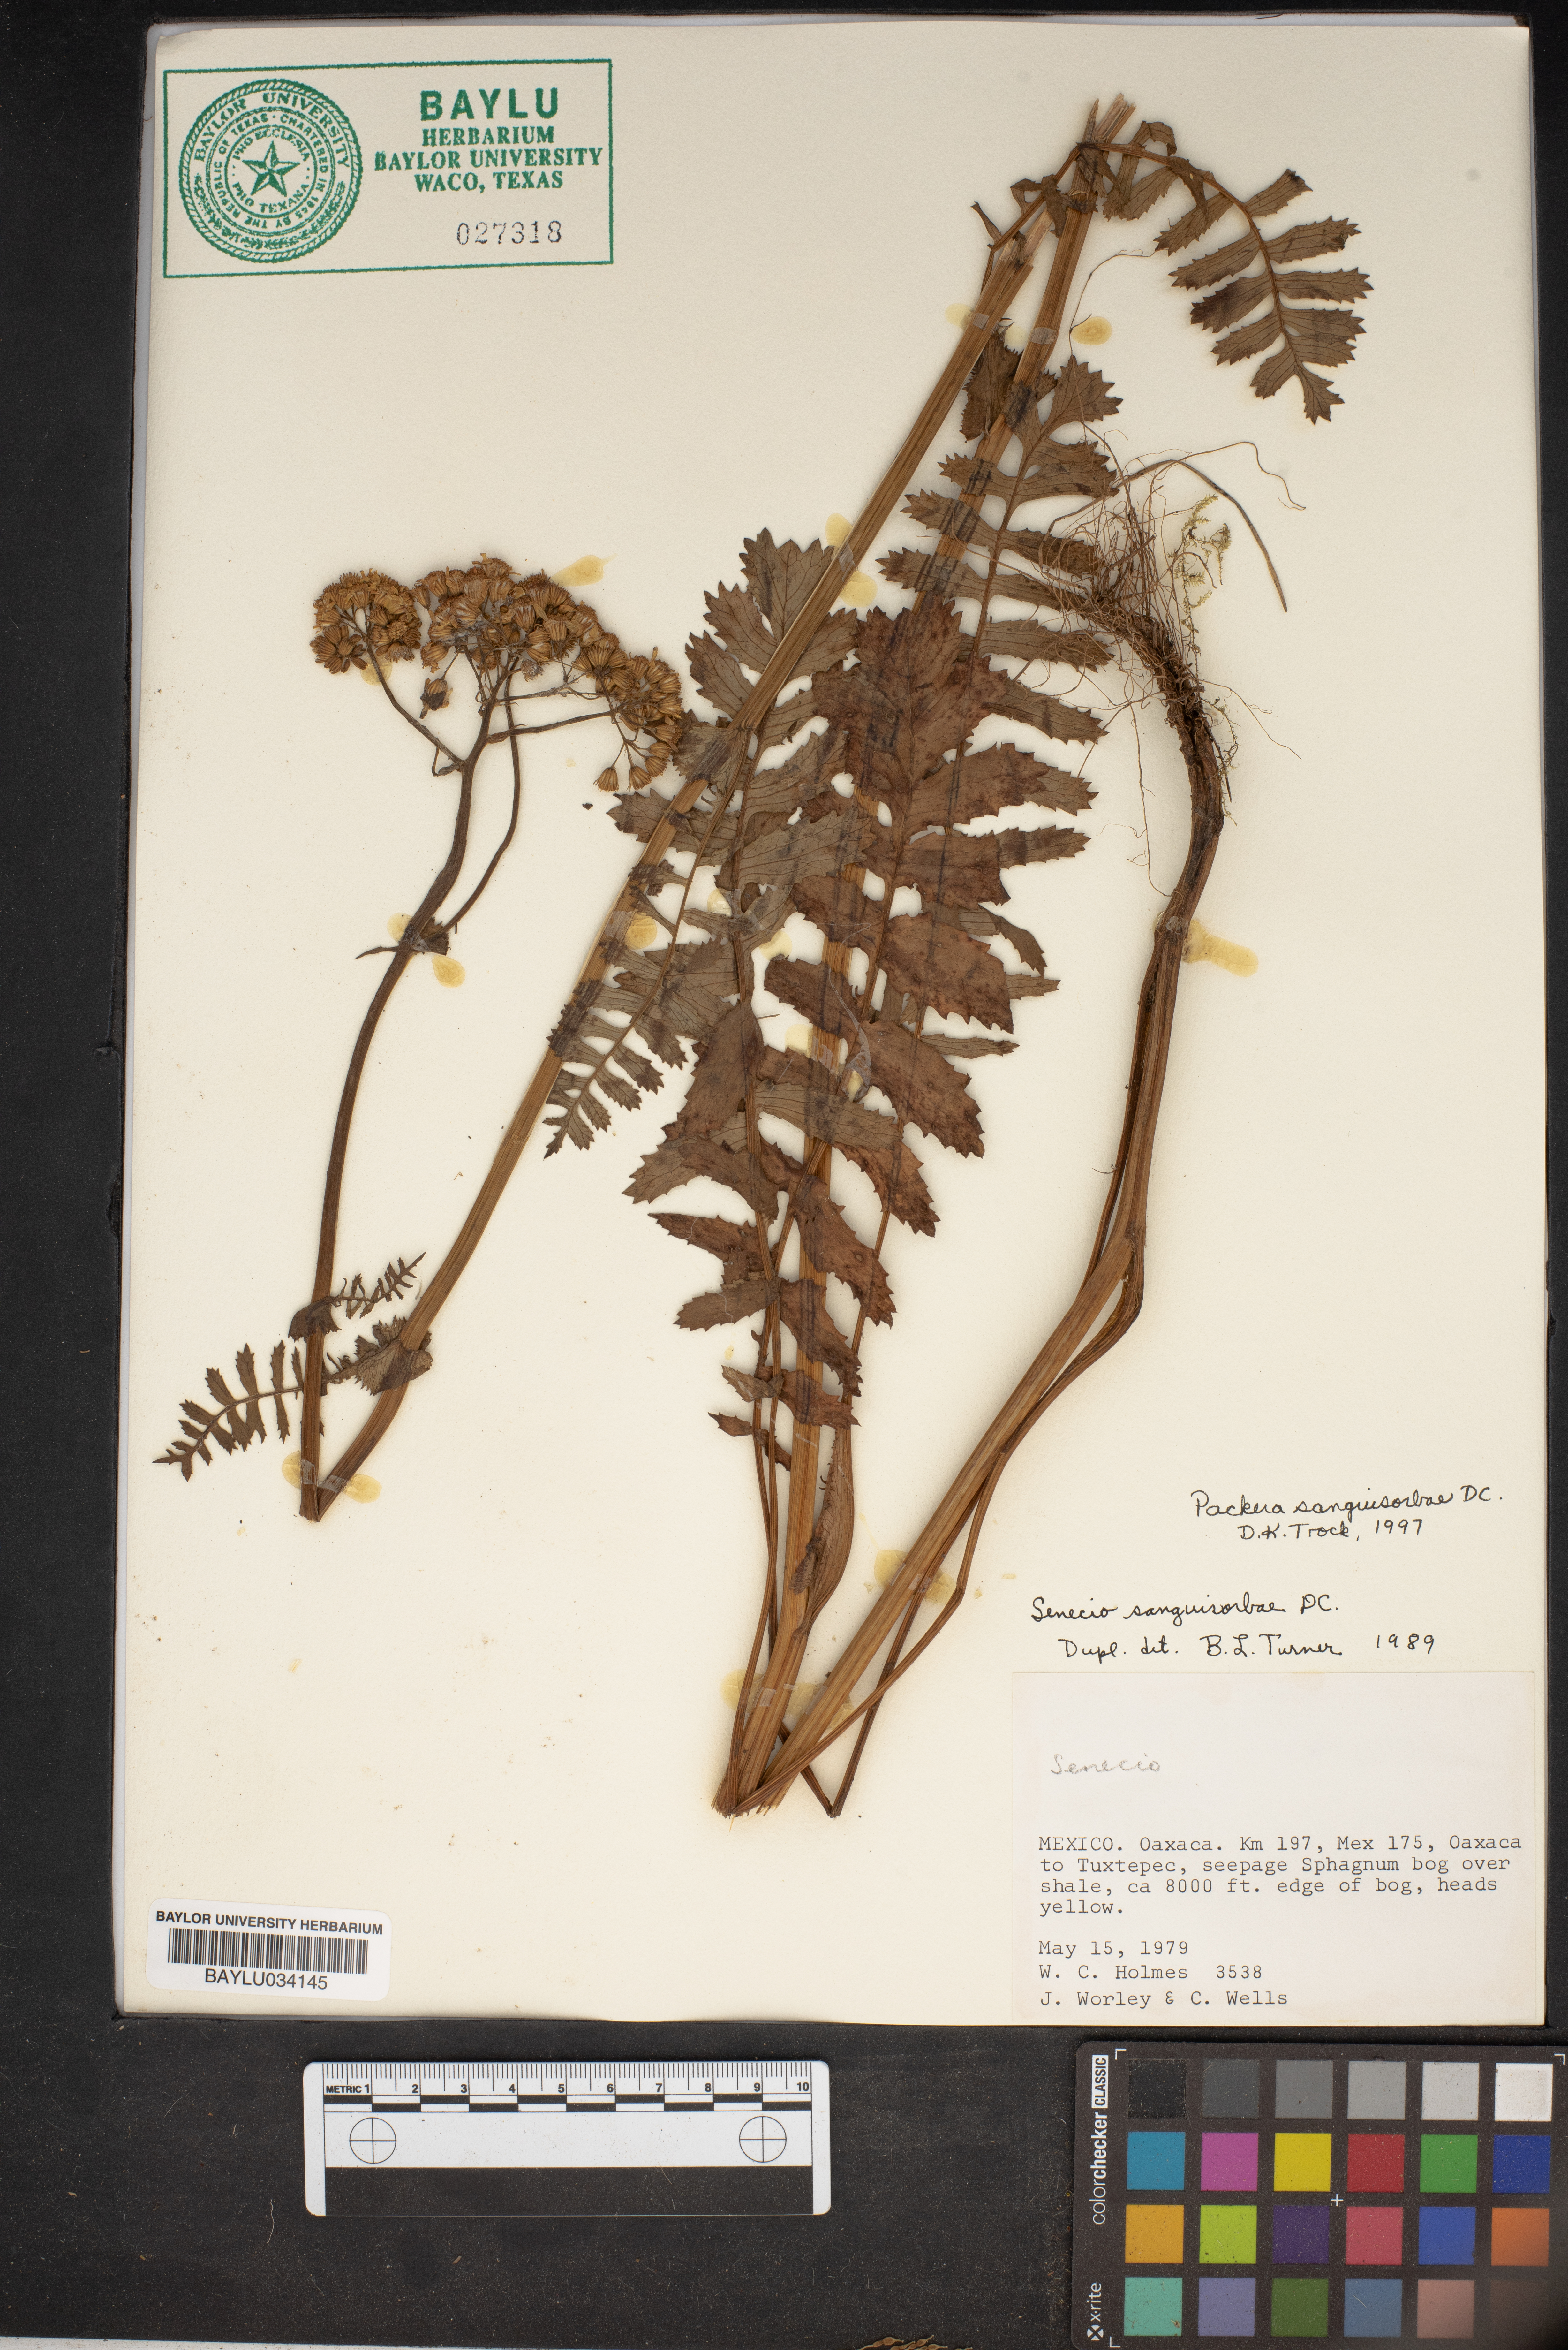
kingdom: Plantae
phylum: Tracheophyta
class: Magnoliopsida
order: Asterales
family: Asteraceae
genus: Packera
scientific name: Packera sanguisorbae
